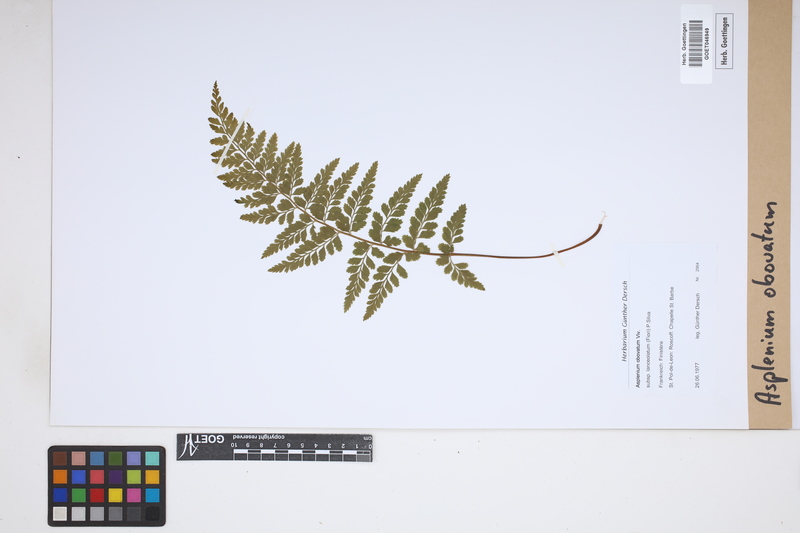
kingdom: Plantae
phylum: Tracheophyta
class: Polypodiopsida
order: Polypodiales
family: Aspleniaceae
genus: Asplenium
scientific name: Asplenium obovatum
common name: Lanceolate spleenwort
